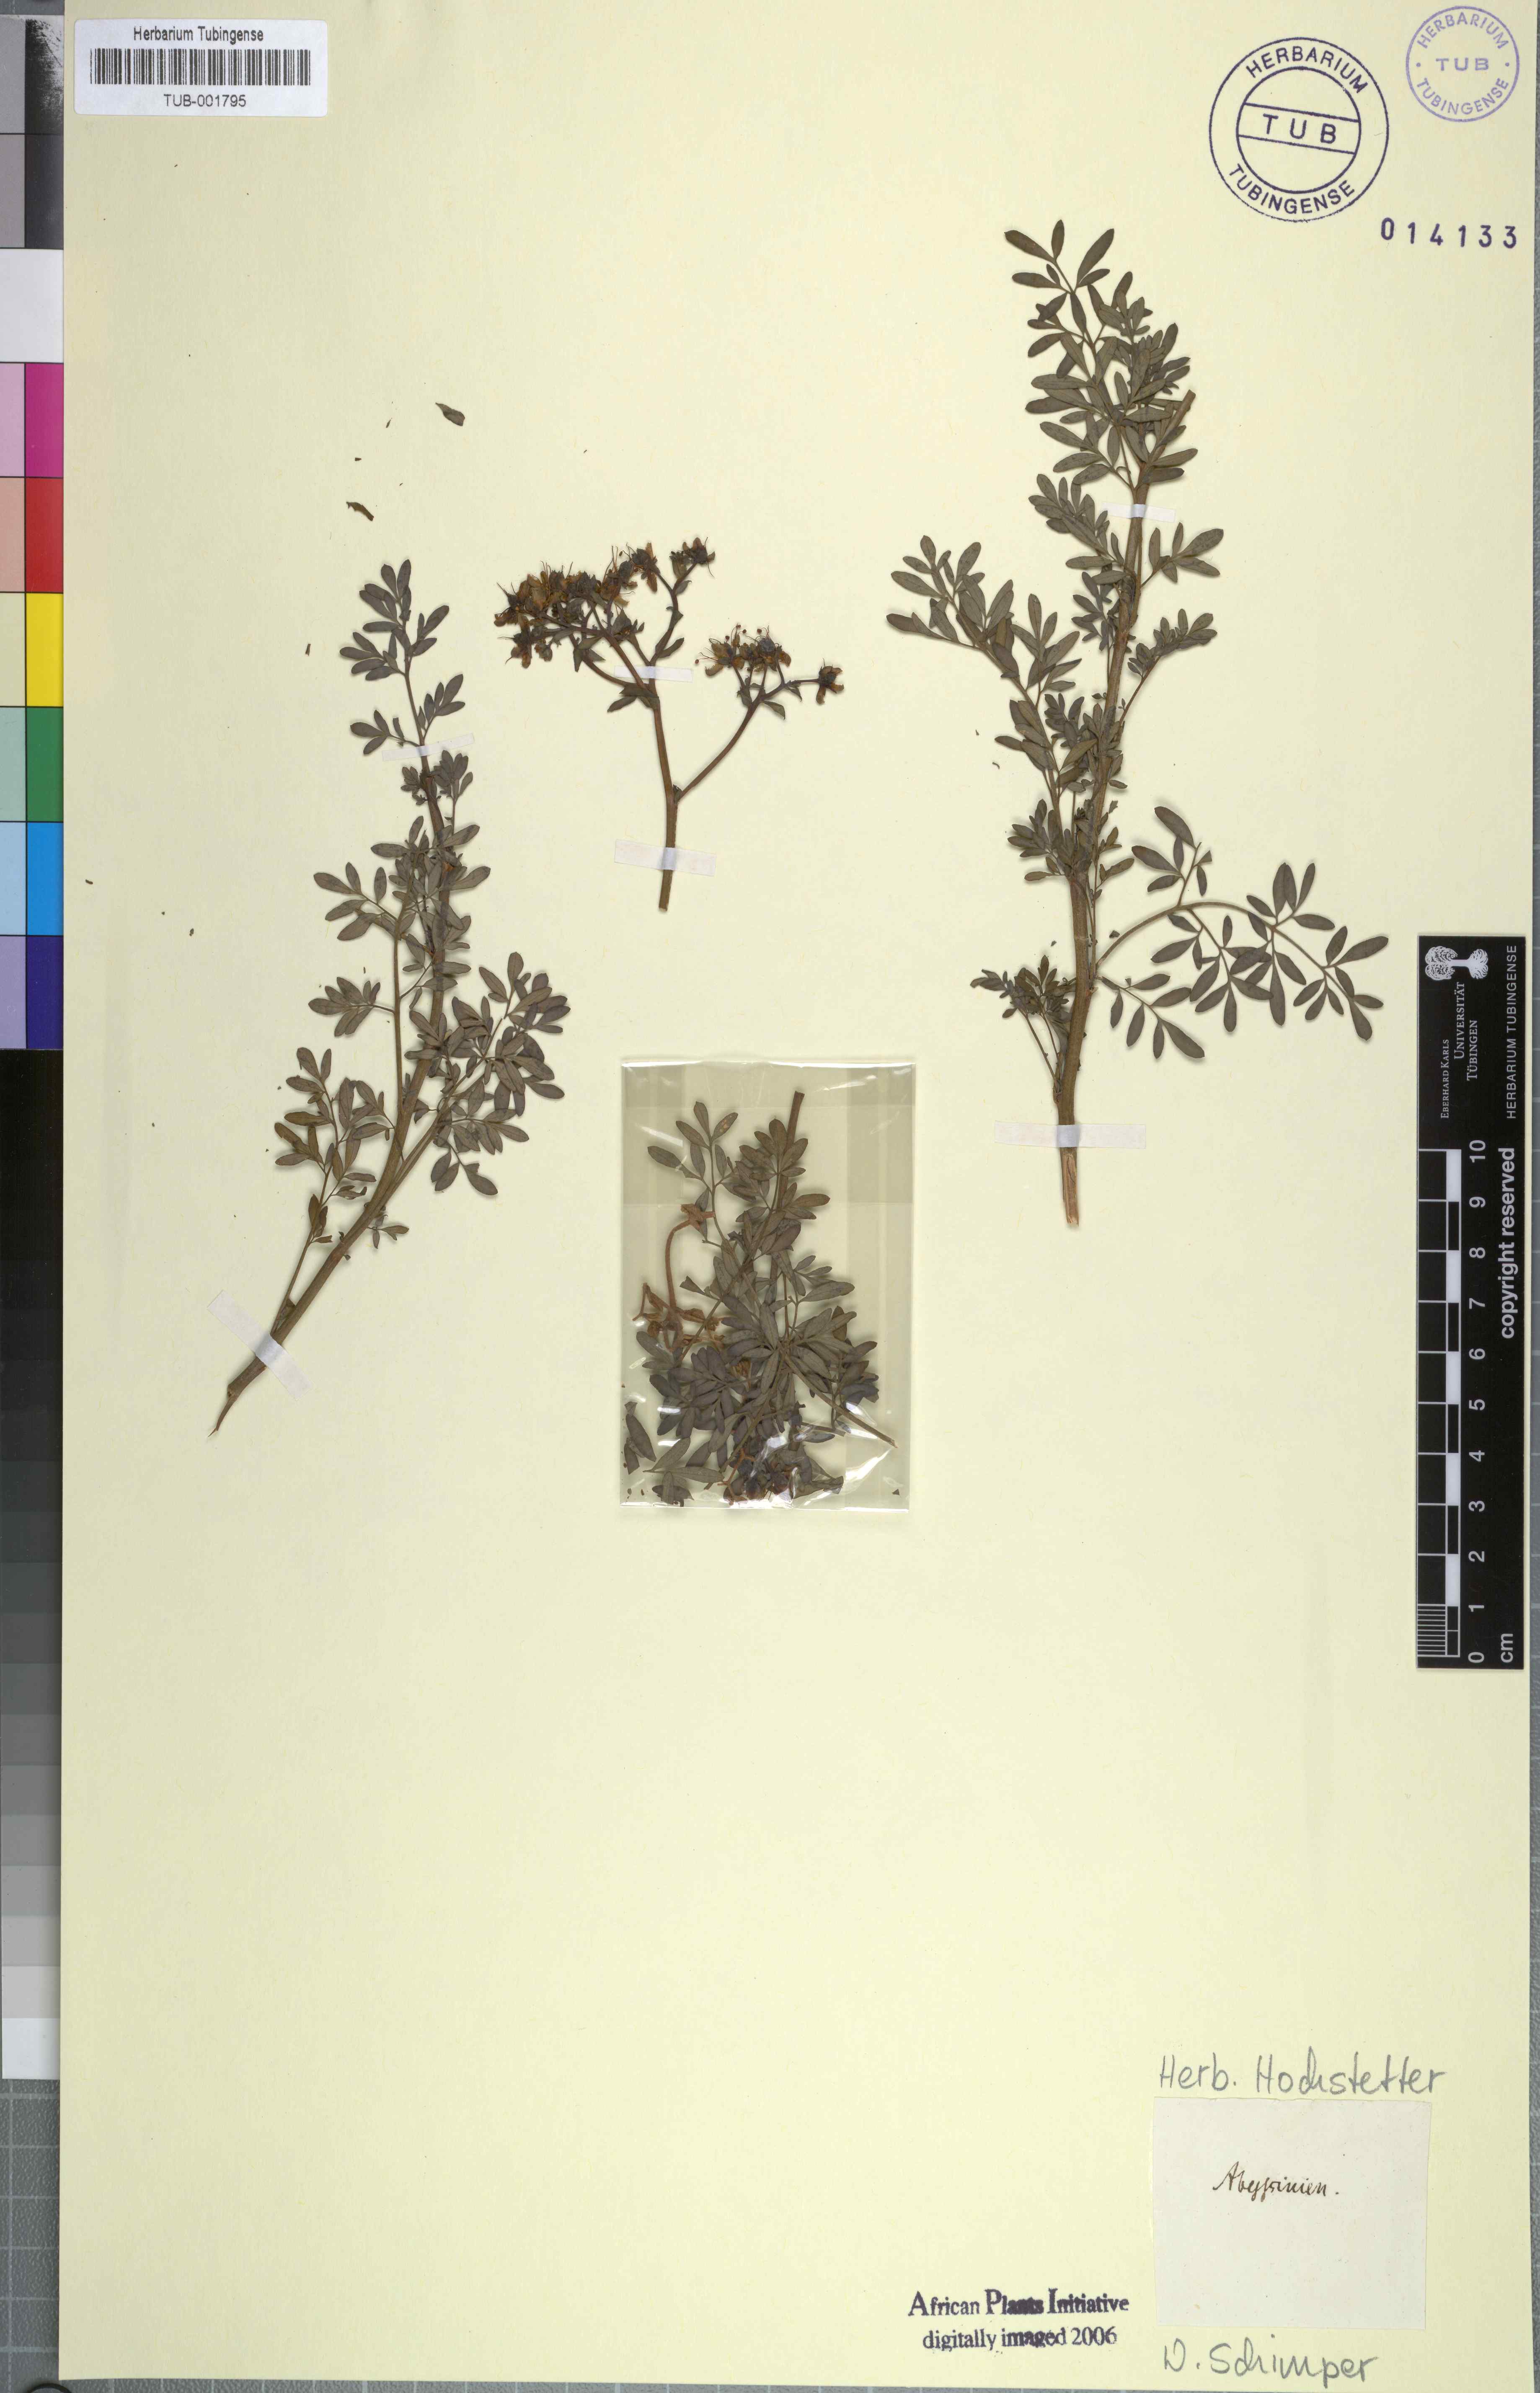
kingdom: Plantae
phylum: Tracheophyta
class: Magnoliopsida
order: Sapindales
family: Rutaceae
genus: Ruta
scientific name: Ruta
